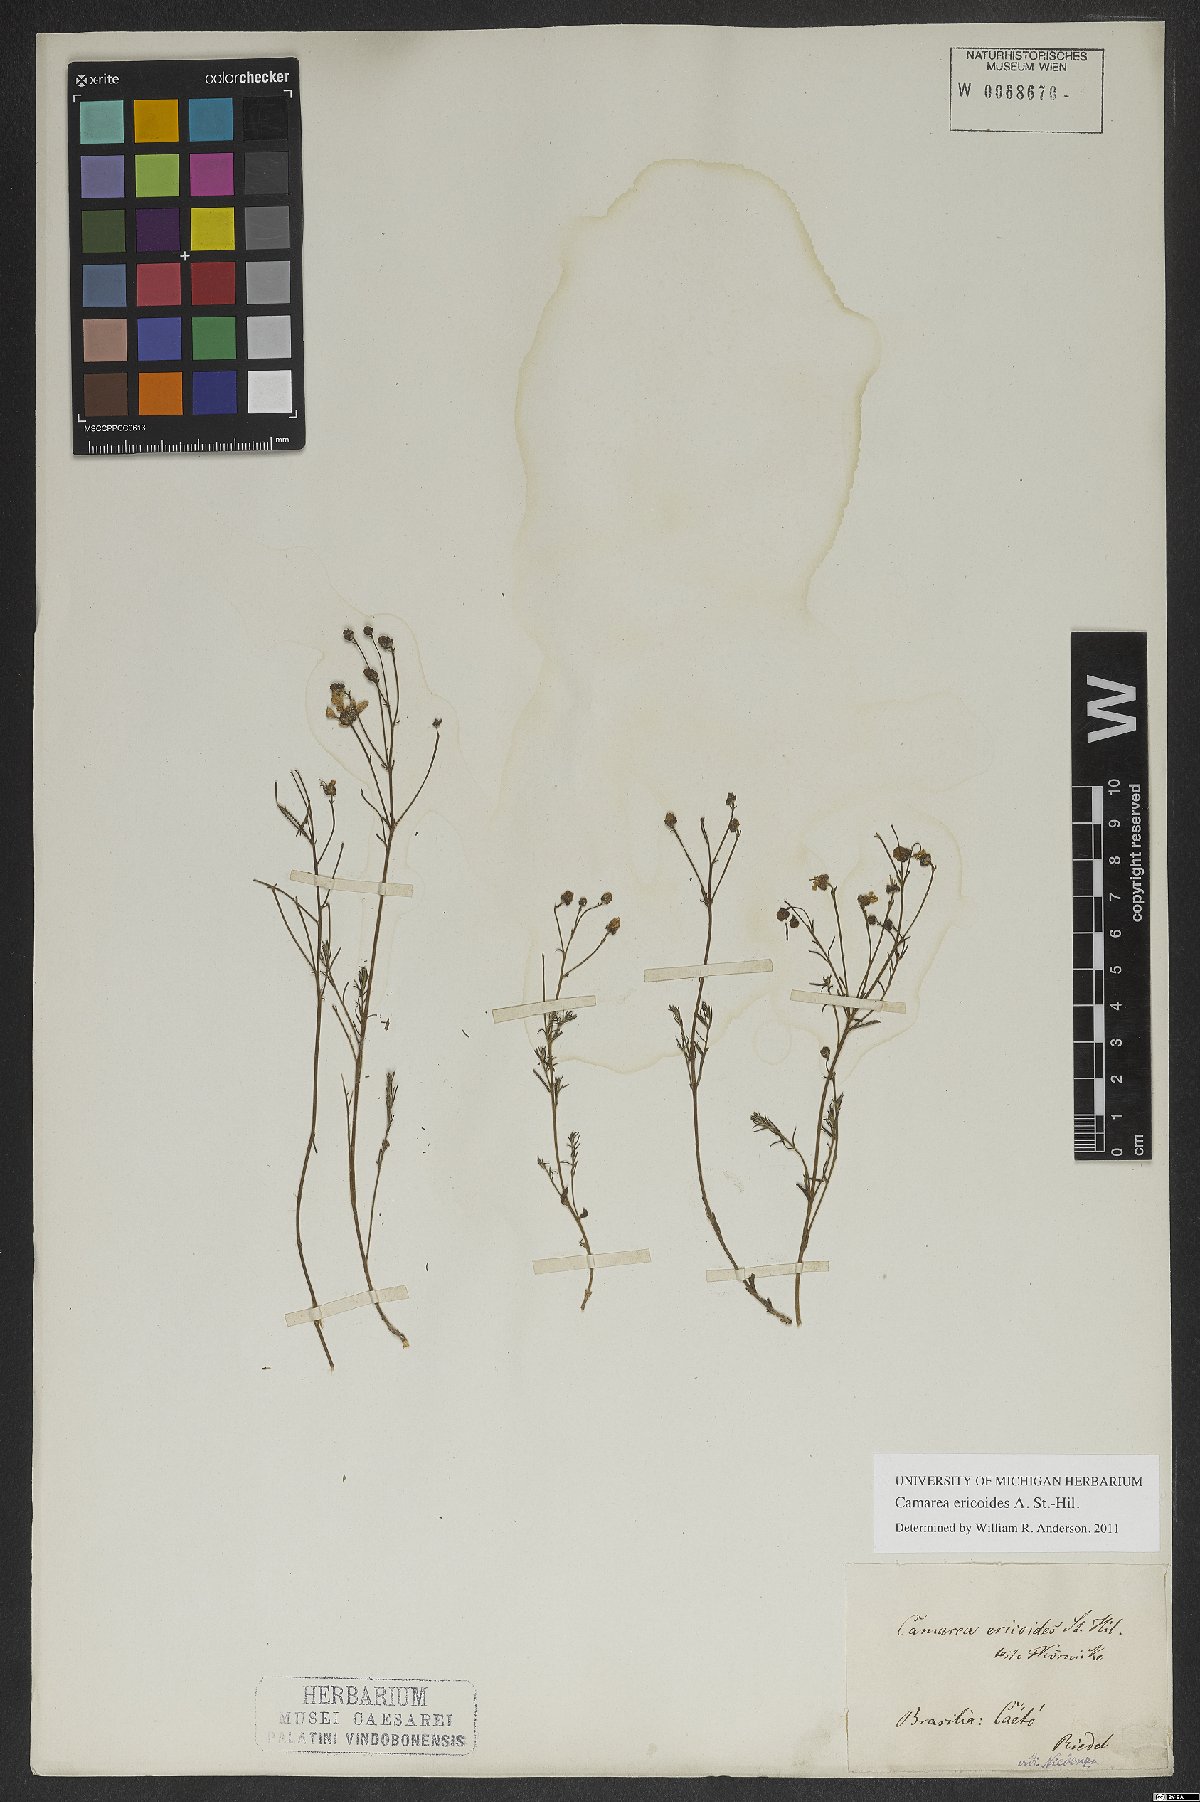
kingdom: Plantae
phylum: Tracheophyta
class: Magnoliopsida
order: Malpighiales
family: Malpighiaceae
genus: Camarea
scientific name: Camarea ericoides
